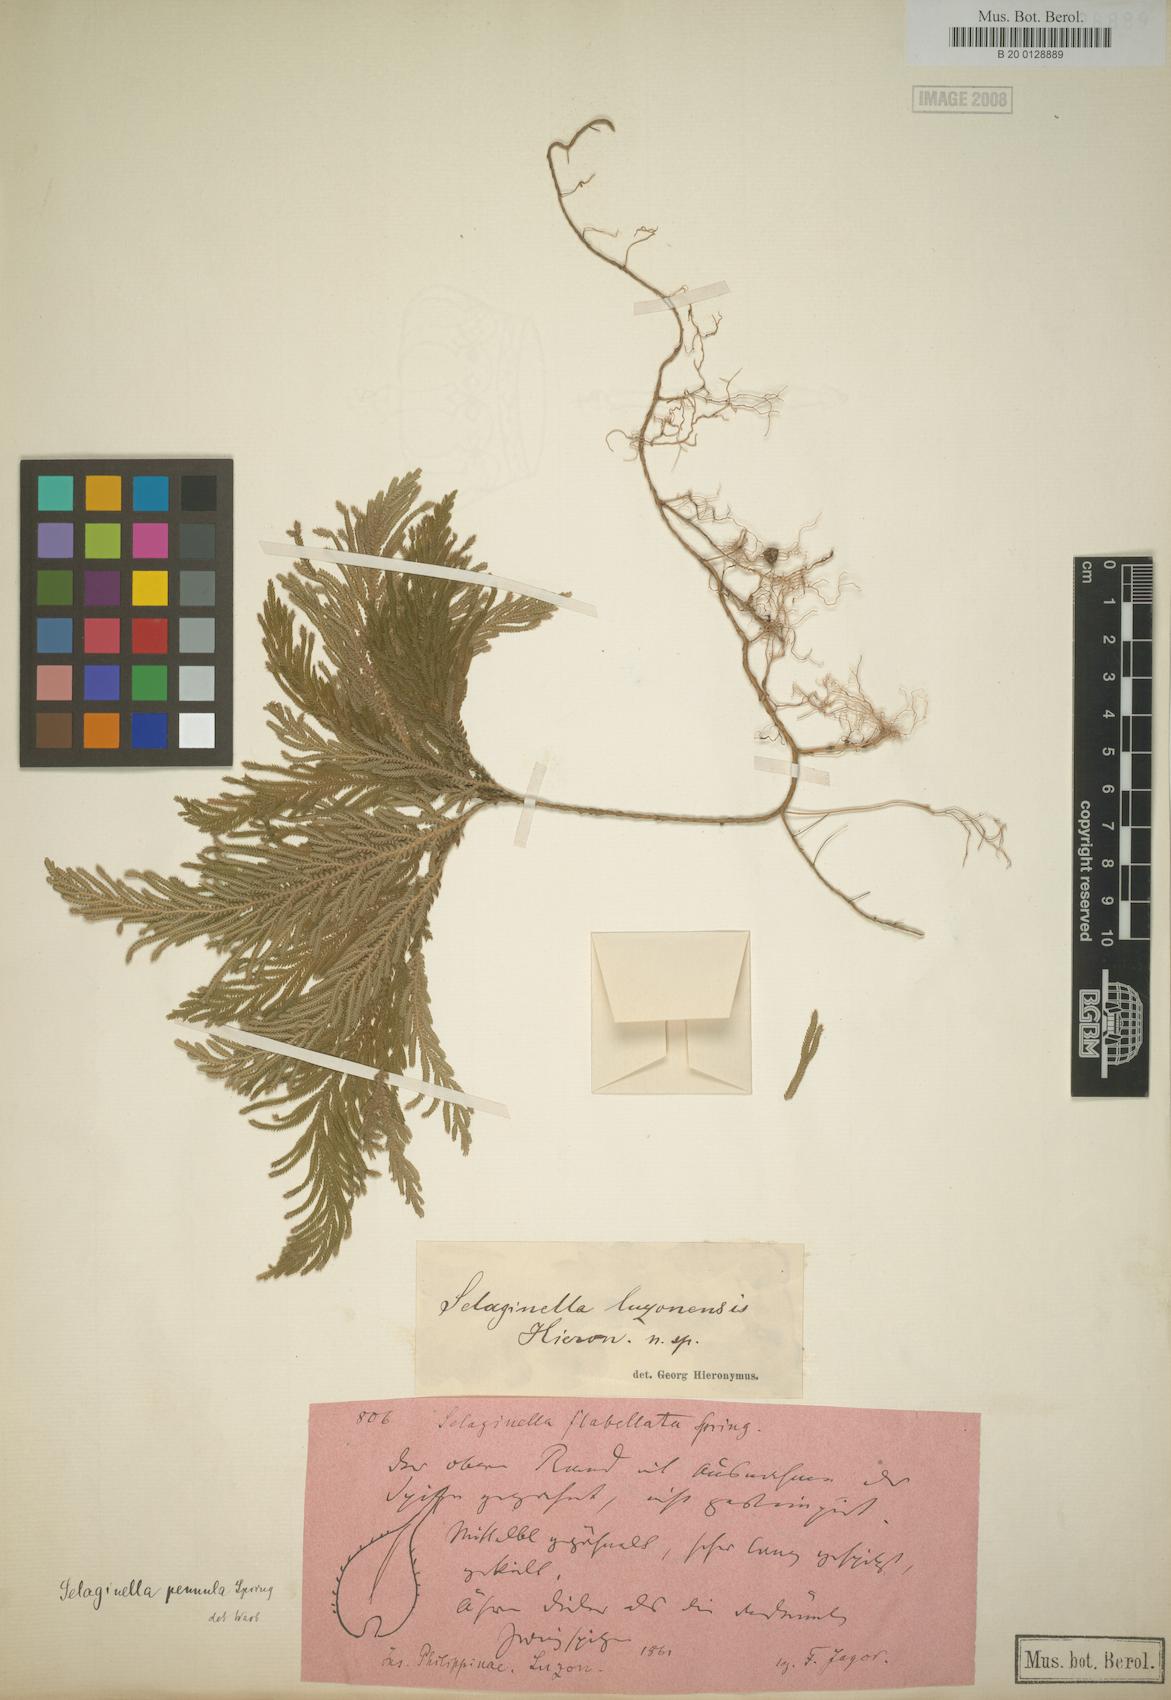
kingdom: Plantae
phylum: Tracheophyta
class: Lycopodiopsida
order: Selaginellales
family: Selaginellaceae
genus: Selaginella
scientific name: Selaginella luzonensis
